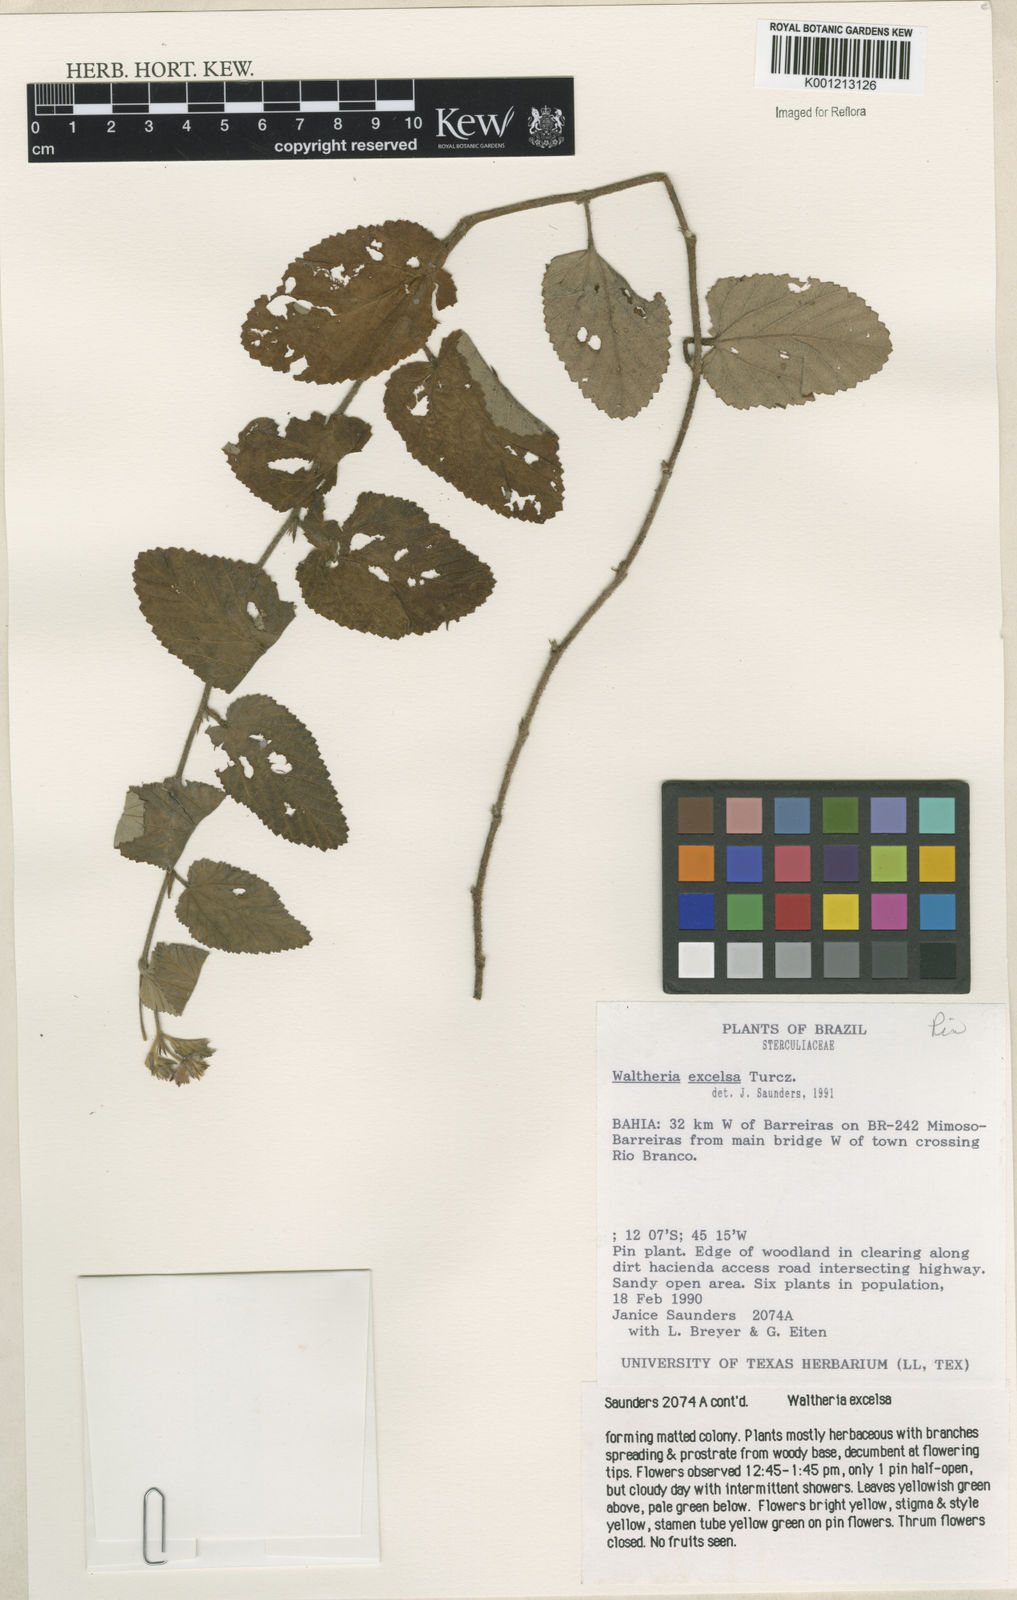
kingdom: Plantae
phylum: Tracheophyta
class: Magnoliopsida
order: Malvales
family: Malvaceae
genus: Waltheria
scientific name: Waltheria excelsa
